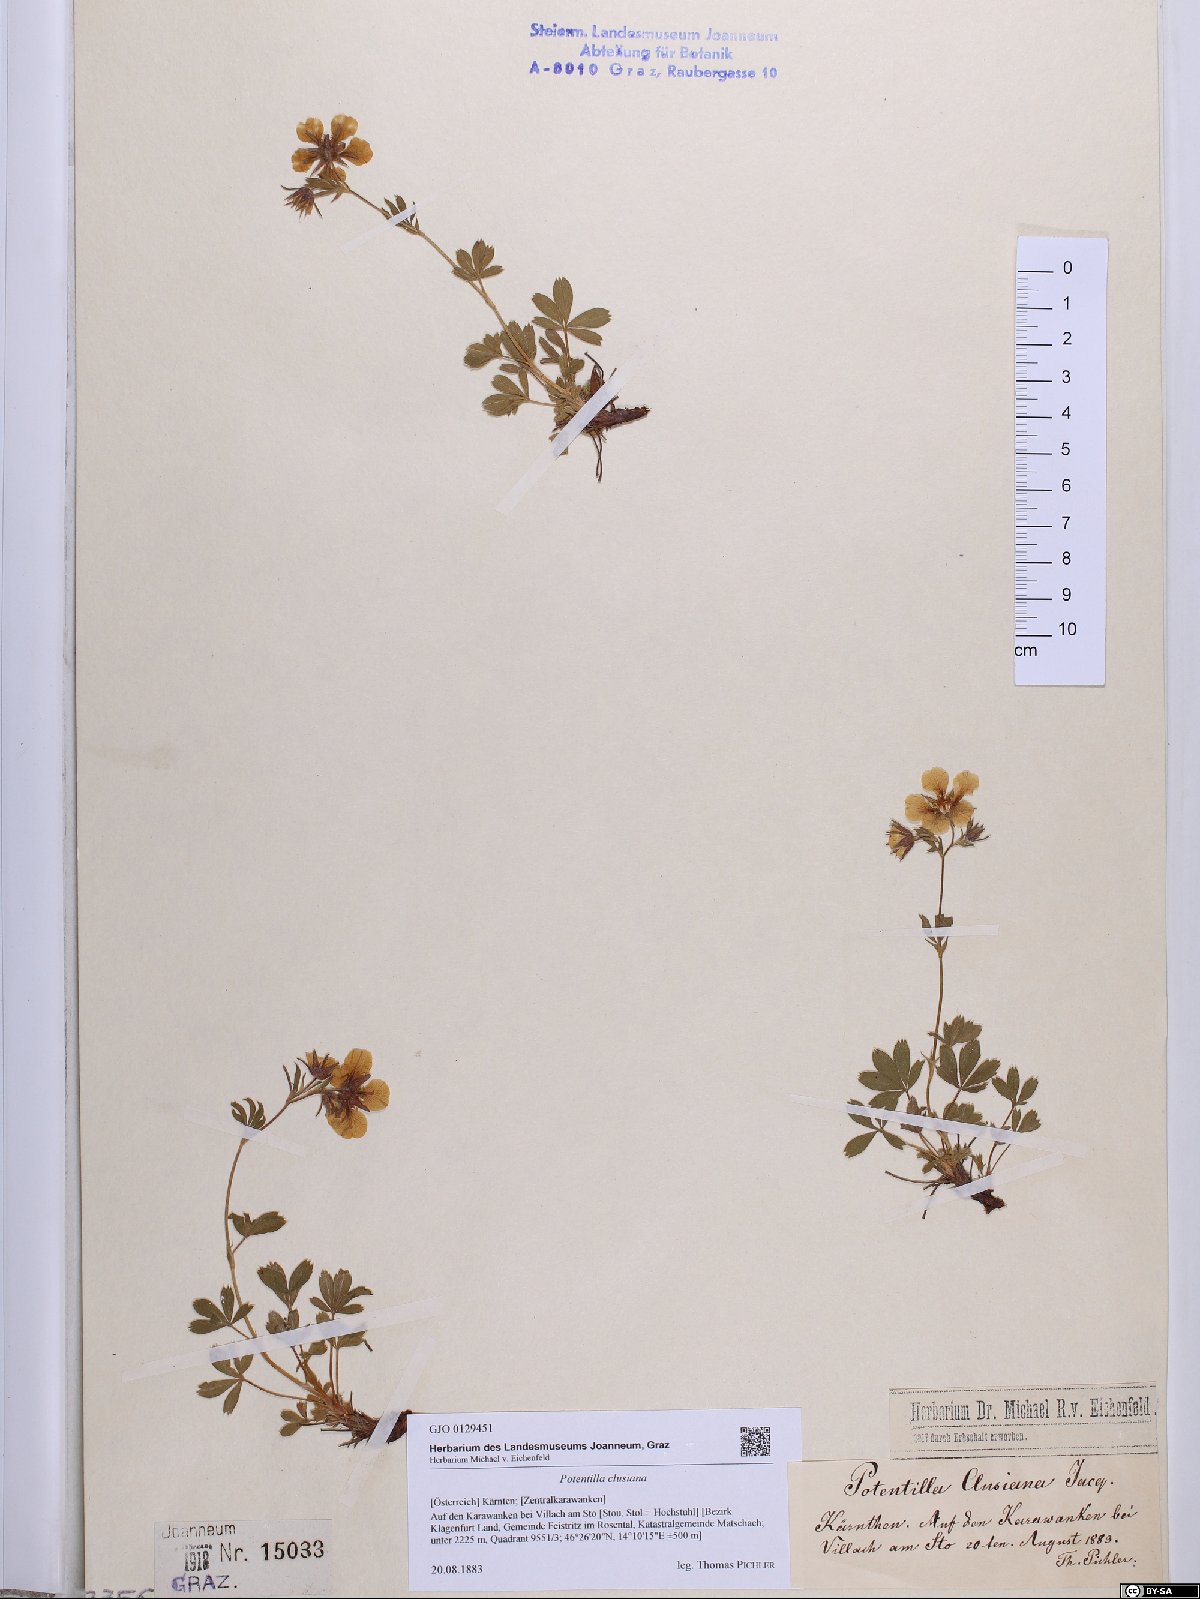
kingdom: Plantae
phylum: Tracheophyta
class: Magnoliopsida
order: Rosales
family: Rosaceae
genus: Potentilla
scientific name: Potentilla clusiana
